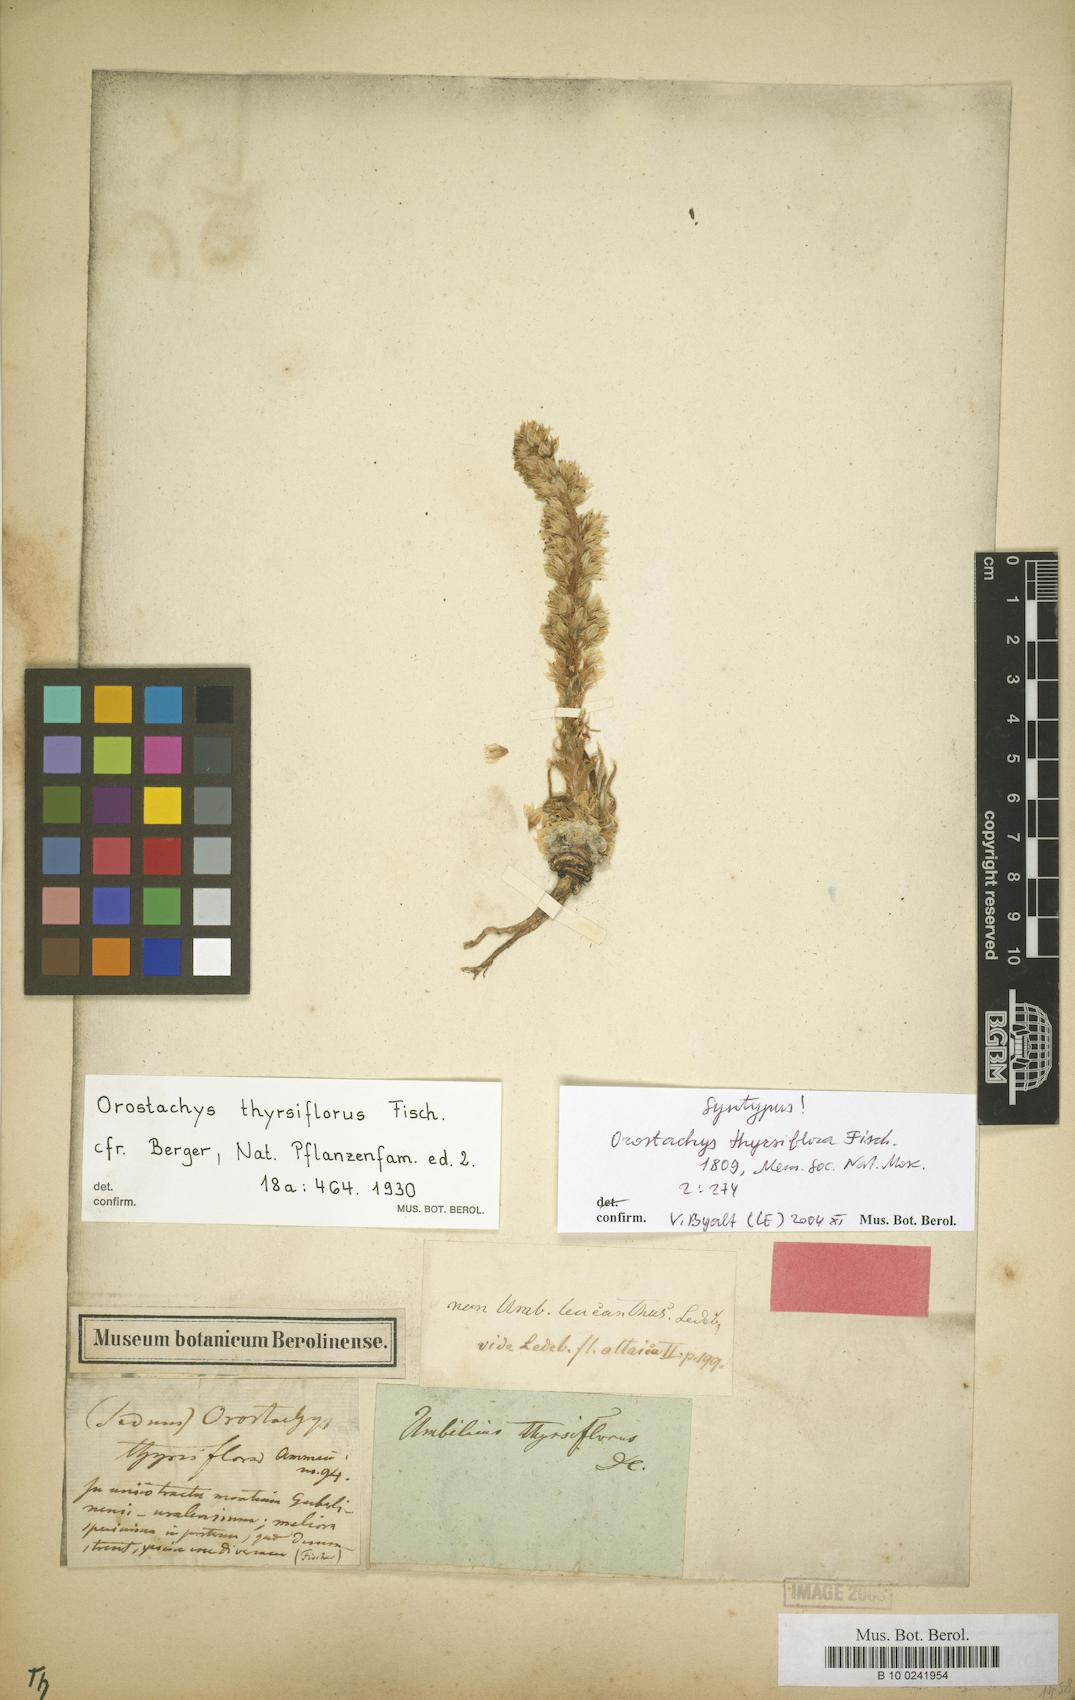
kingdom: Plantae
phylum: Tracheophyta
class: Magnoliopsida
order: Saxifragales
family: Crassulaceae
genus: Orostachys
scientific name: Orostachys thyrsiflora
